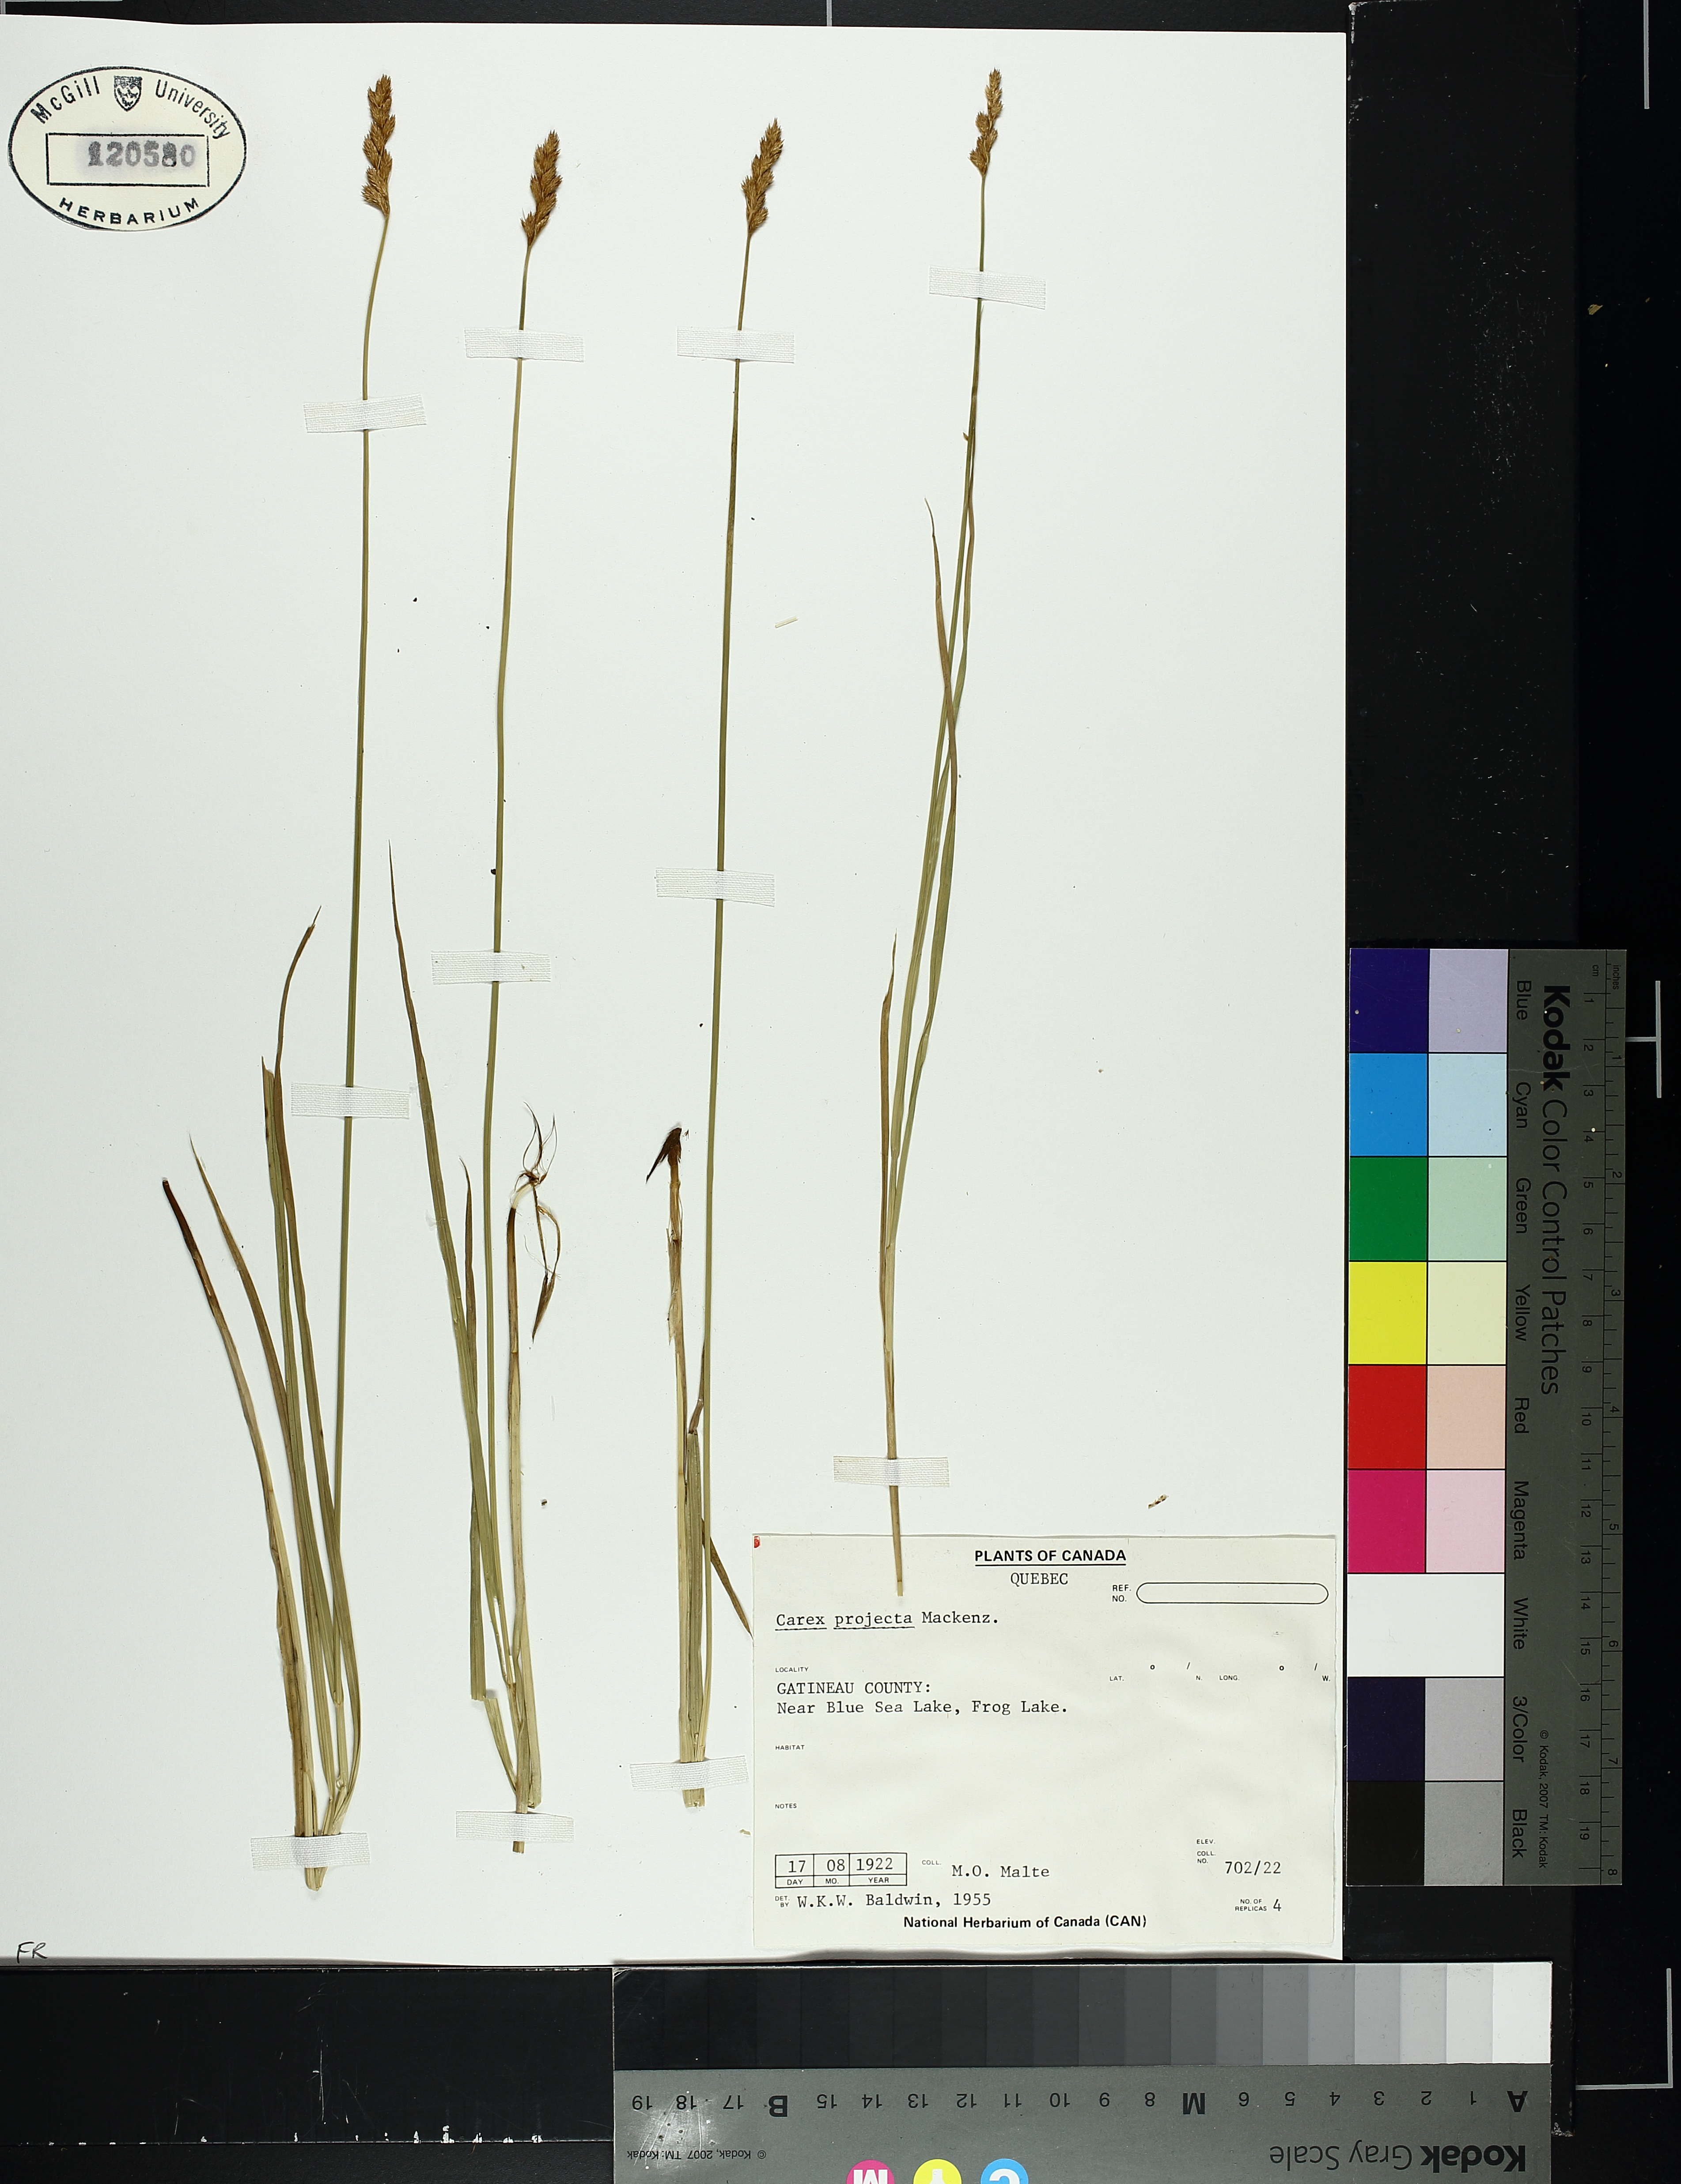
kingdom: Plantae
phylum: Tracheophyta
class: Liliopsida
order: Poales
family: Cyperaceae
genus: Carex
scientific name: Carex projecta
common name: Loose-headed oval sedge
